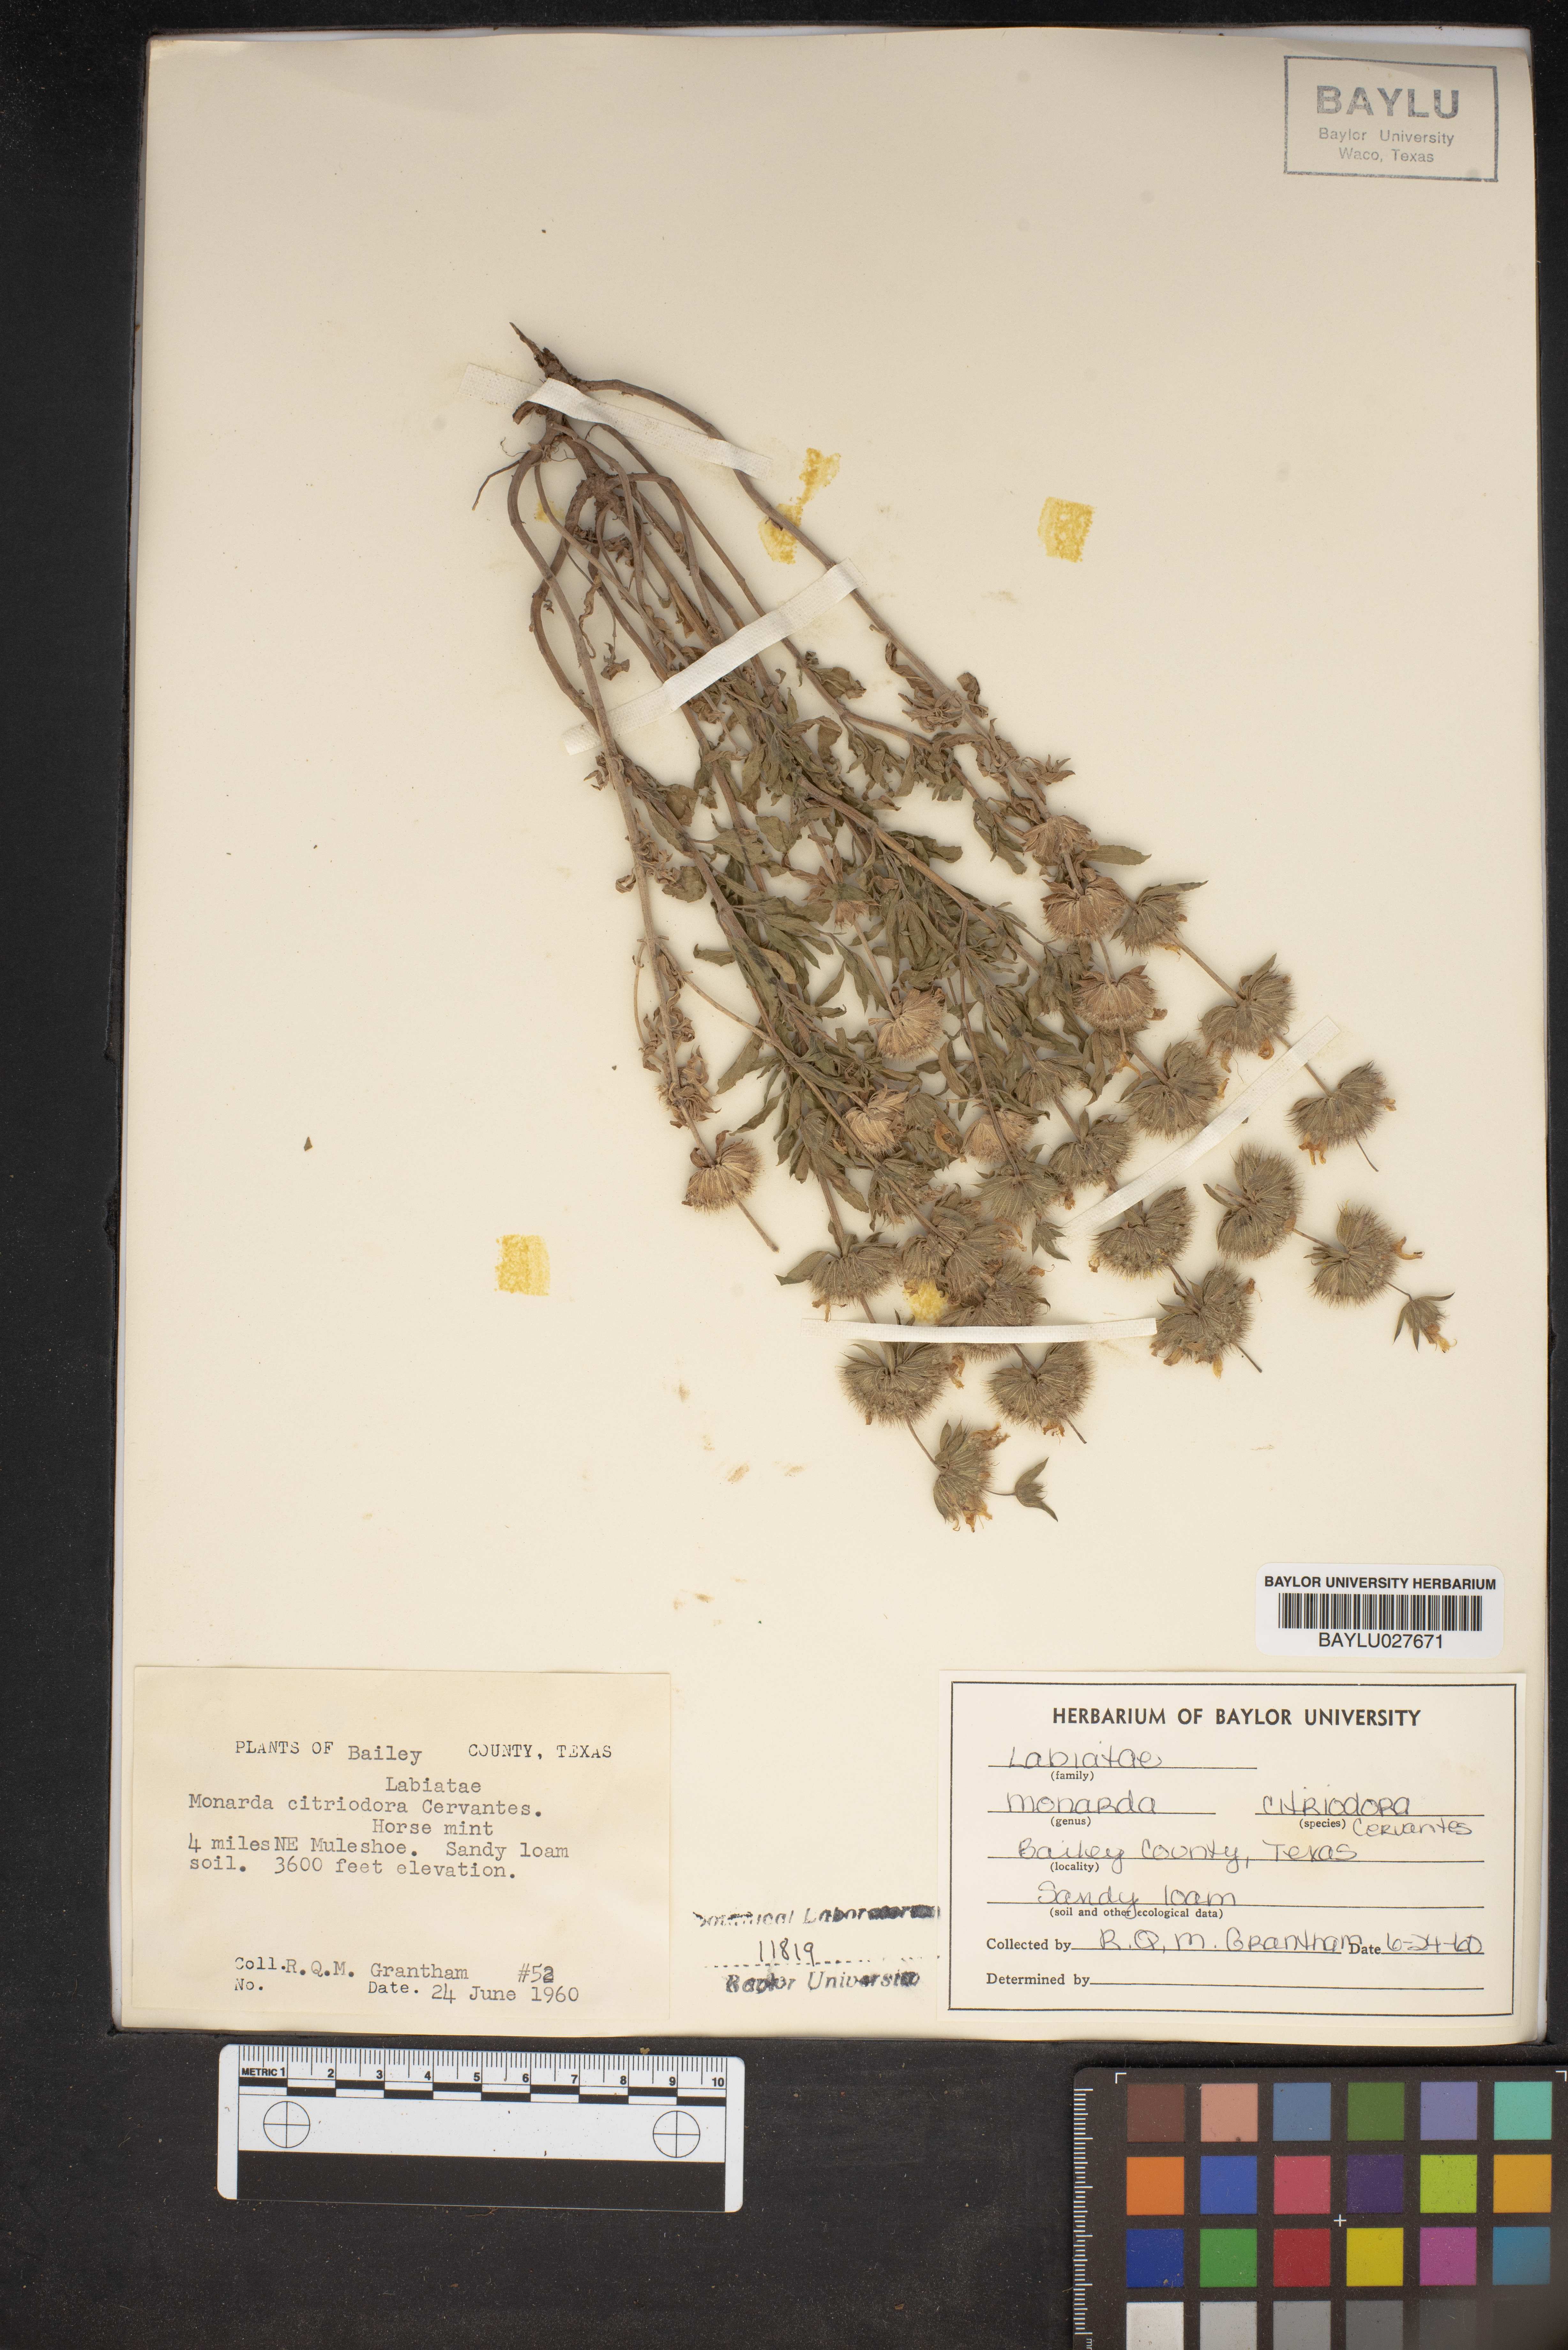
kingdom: Plantae
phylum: Tracheophyta
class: Magnoliopsida
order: Lamiales
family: Lamiaceae
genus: Monarda
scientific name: Monarda citriodora
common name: Lemon beebalm
